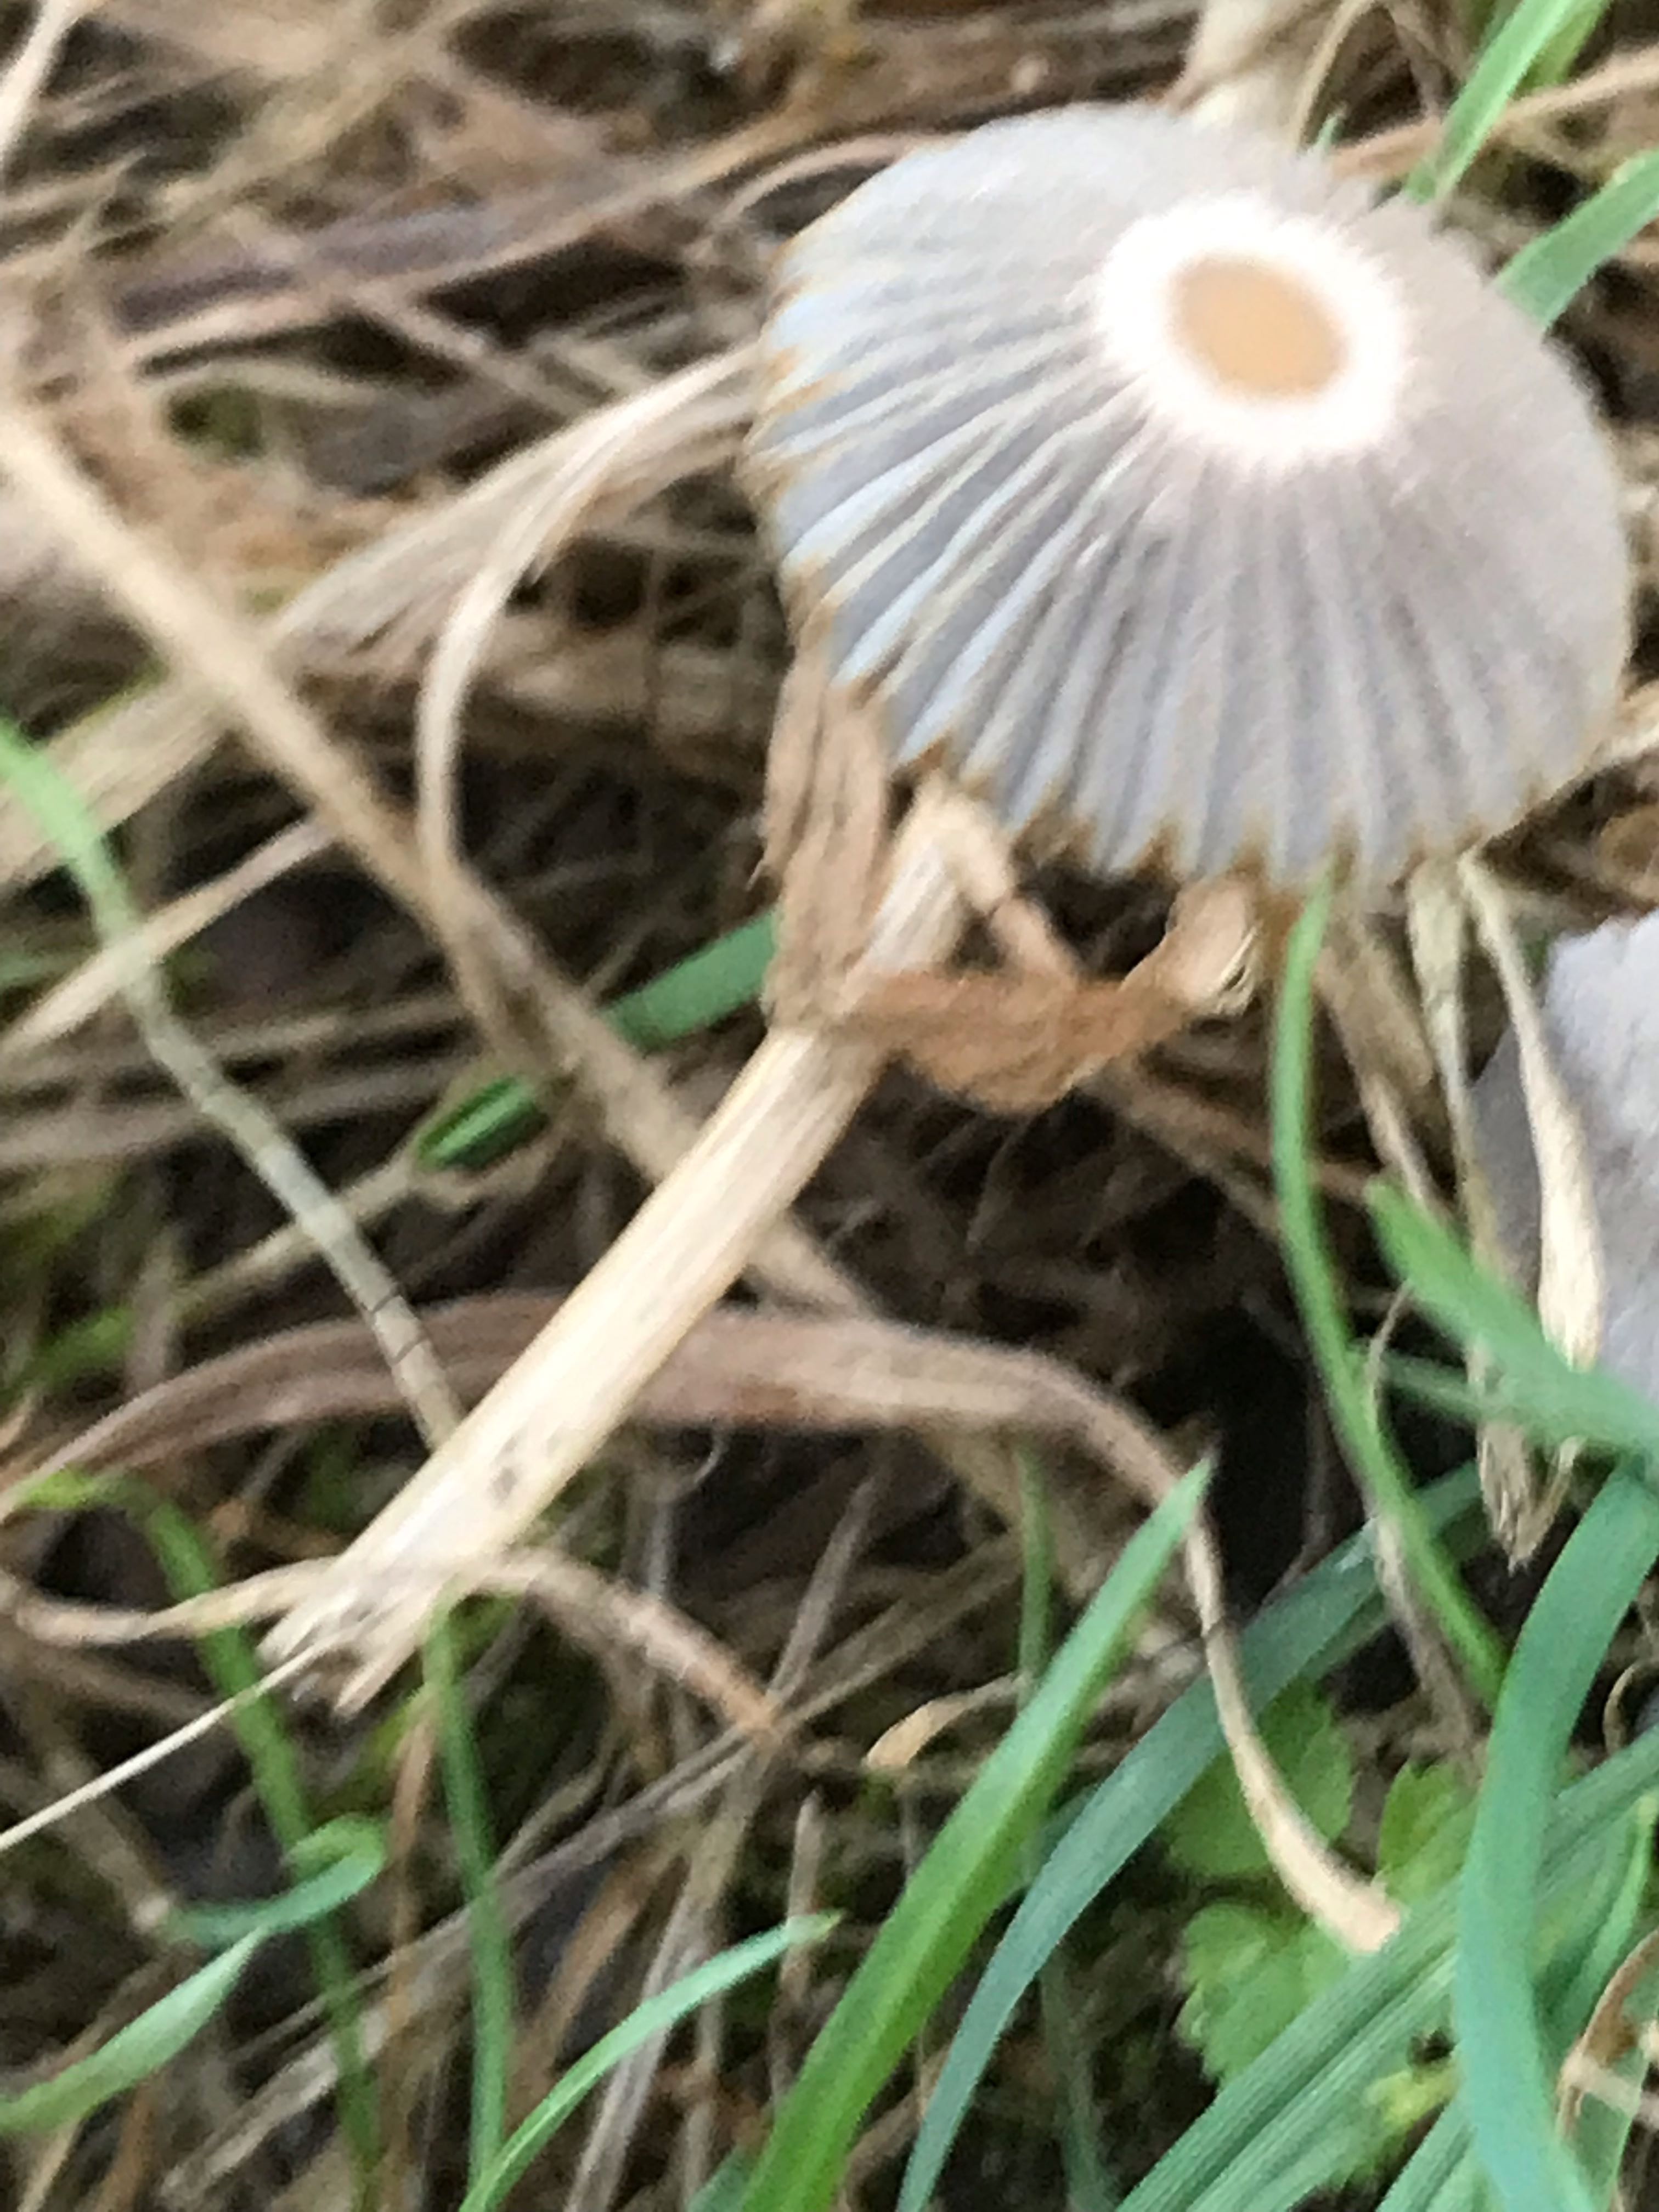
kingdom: Fungi
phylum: Basidiomycota
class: Agaricomycetes
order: Agaricales
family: Psathyrellaceae
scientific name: Psathyrellaceae
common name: mørkhatfamilien
